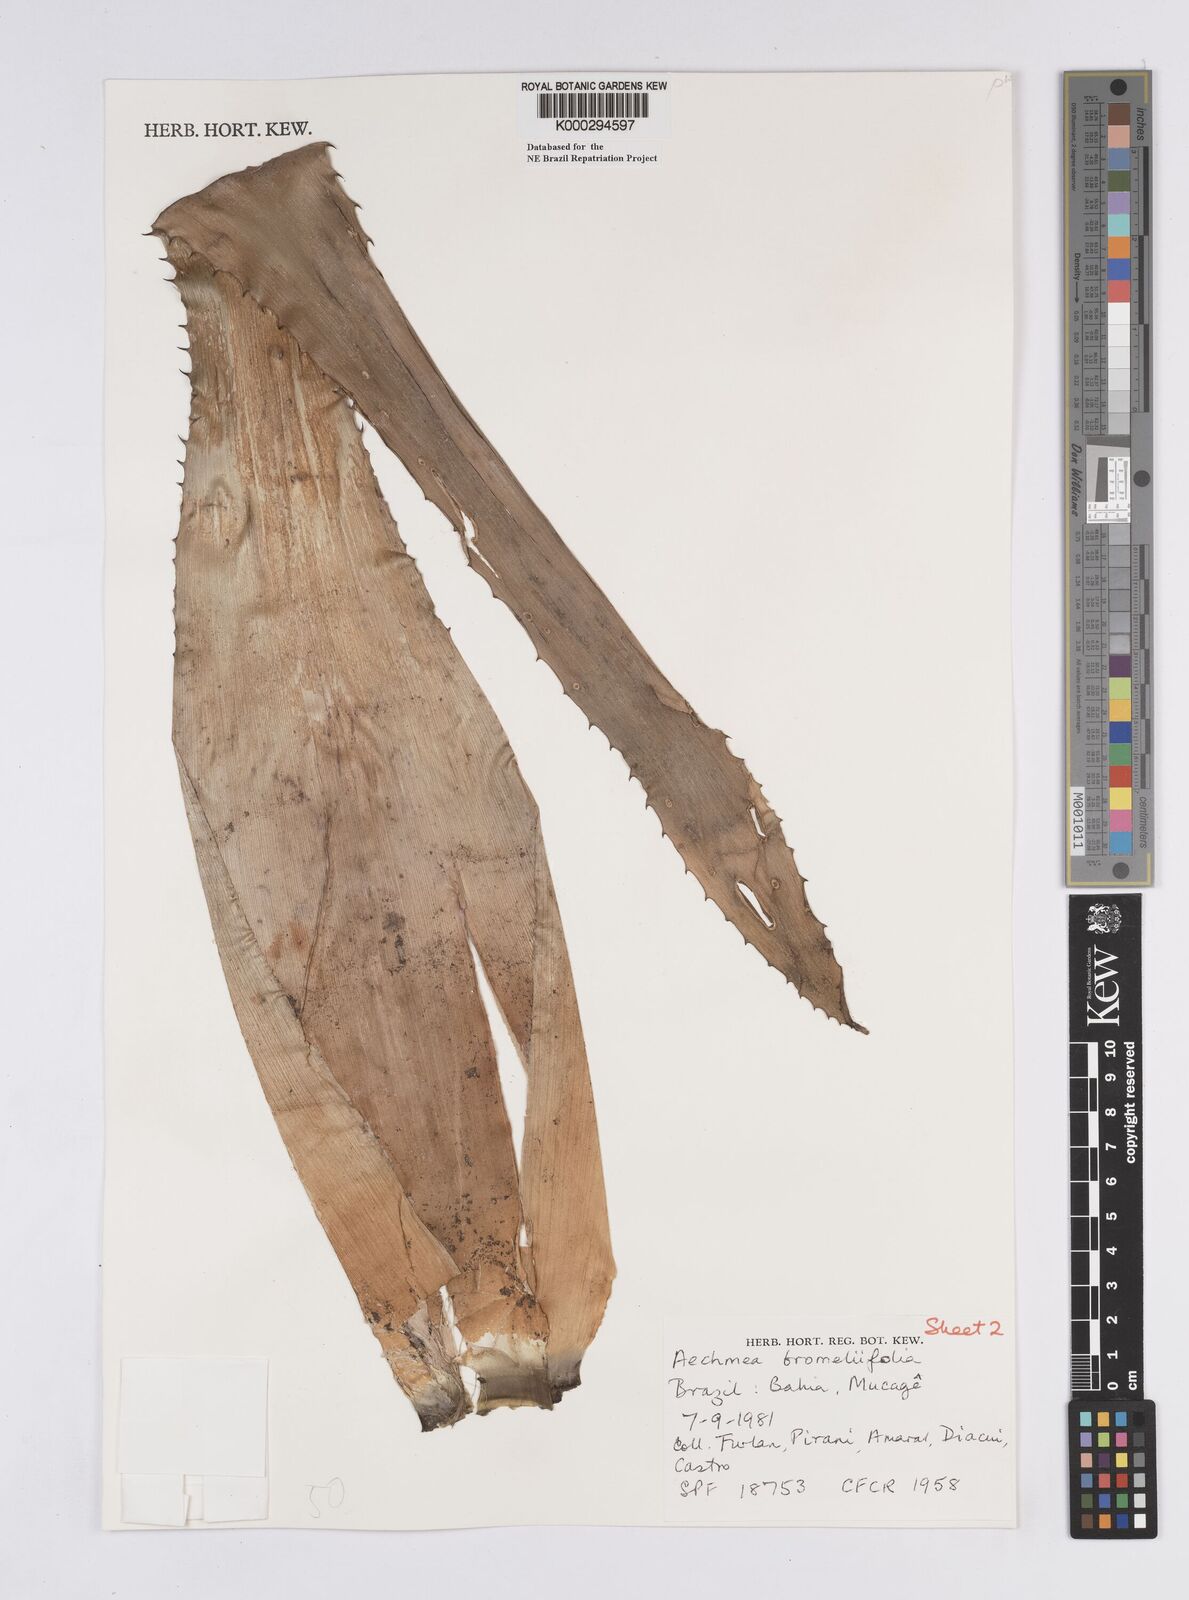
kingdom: Plantae
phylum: Tracheophyta
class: Liliopsida
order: Poales
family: Bromeliaceae
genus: Aechmea
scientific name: Aechmea
